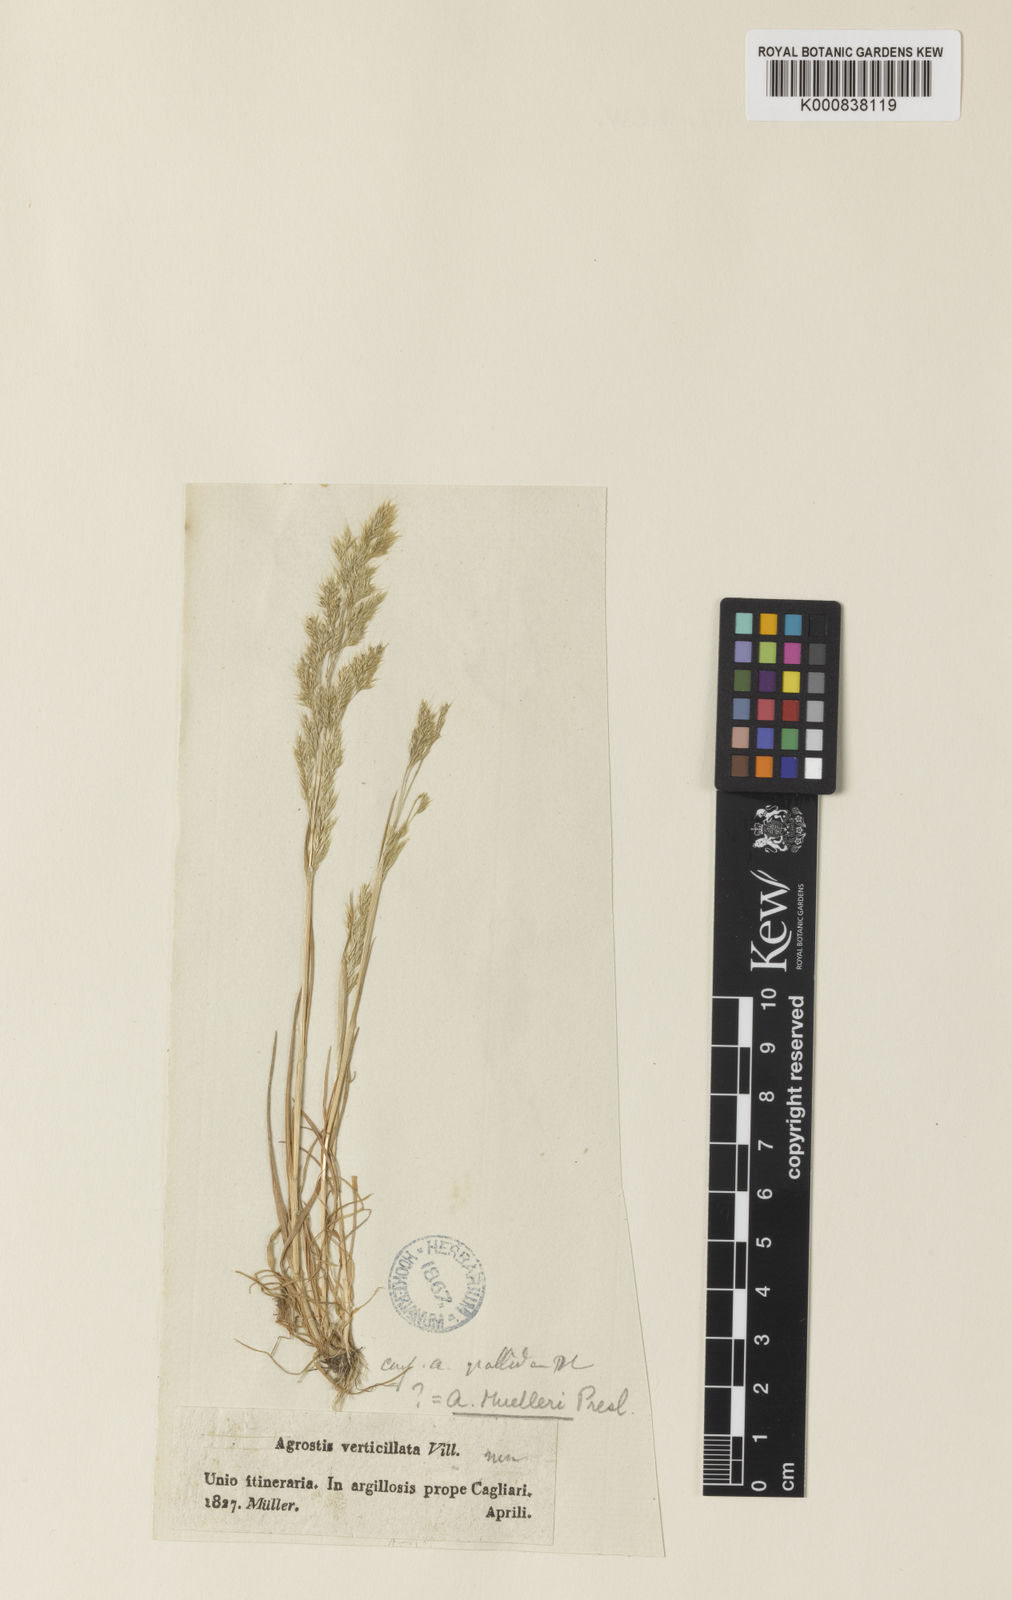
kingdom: Plantae
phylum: Tracheophyta
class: Liliopsida
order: Poales
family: Poaceae
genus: Agrostis
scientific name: Agrostis pourretii
